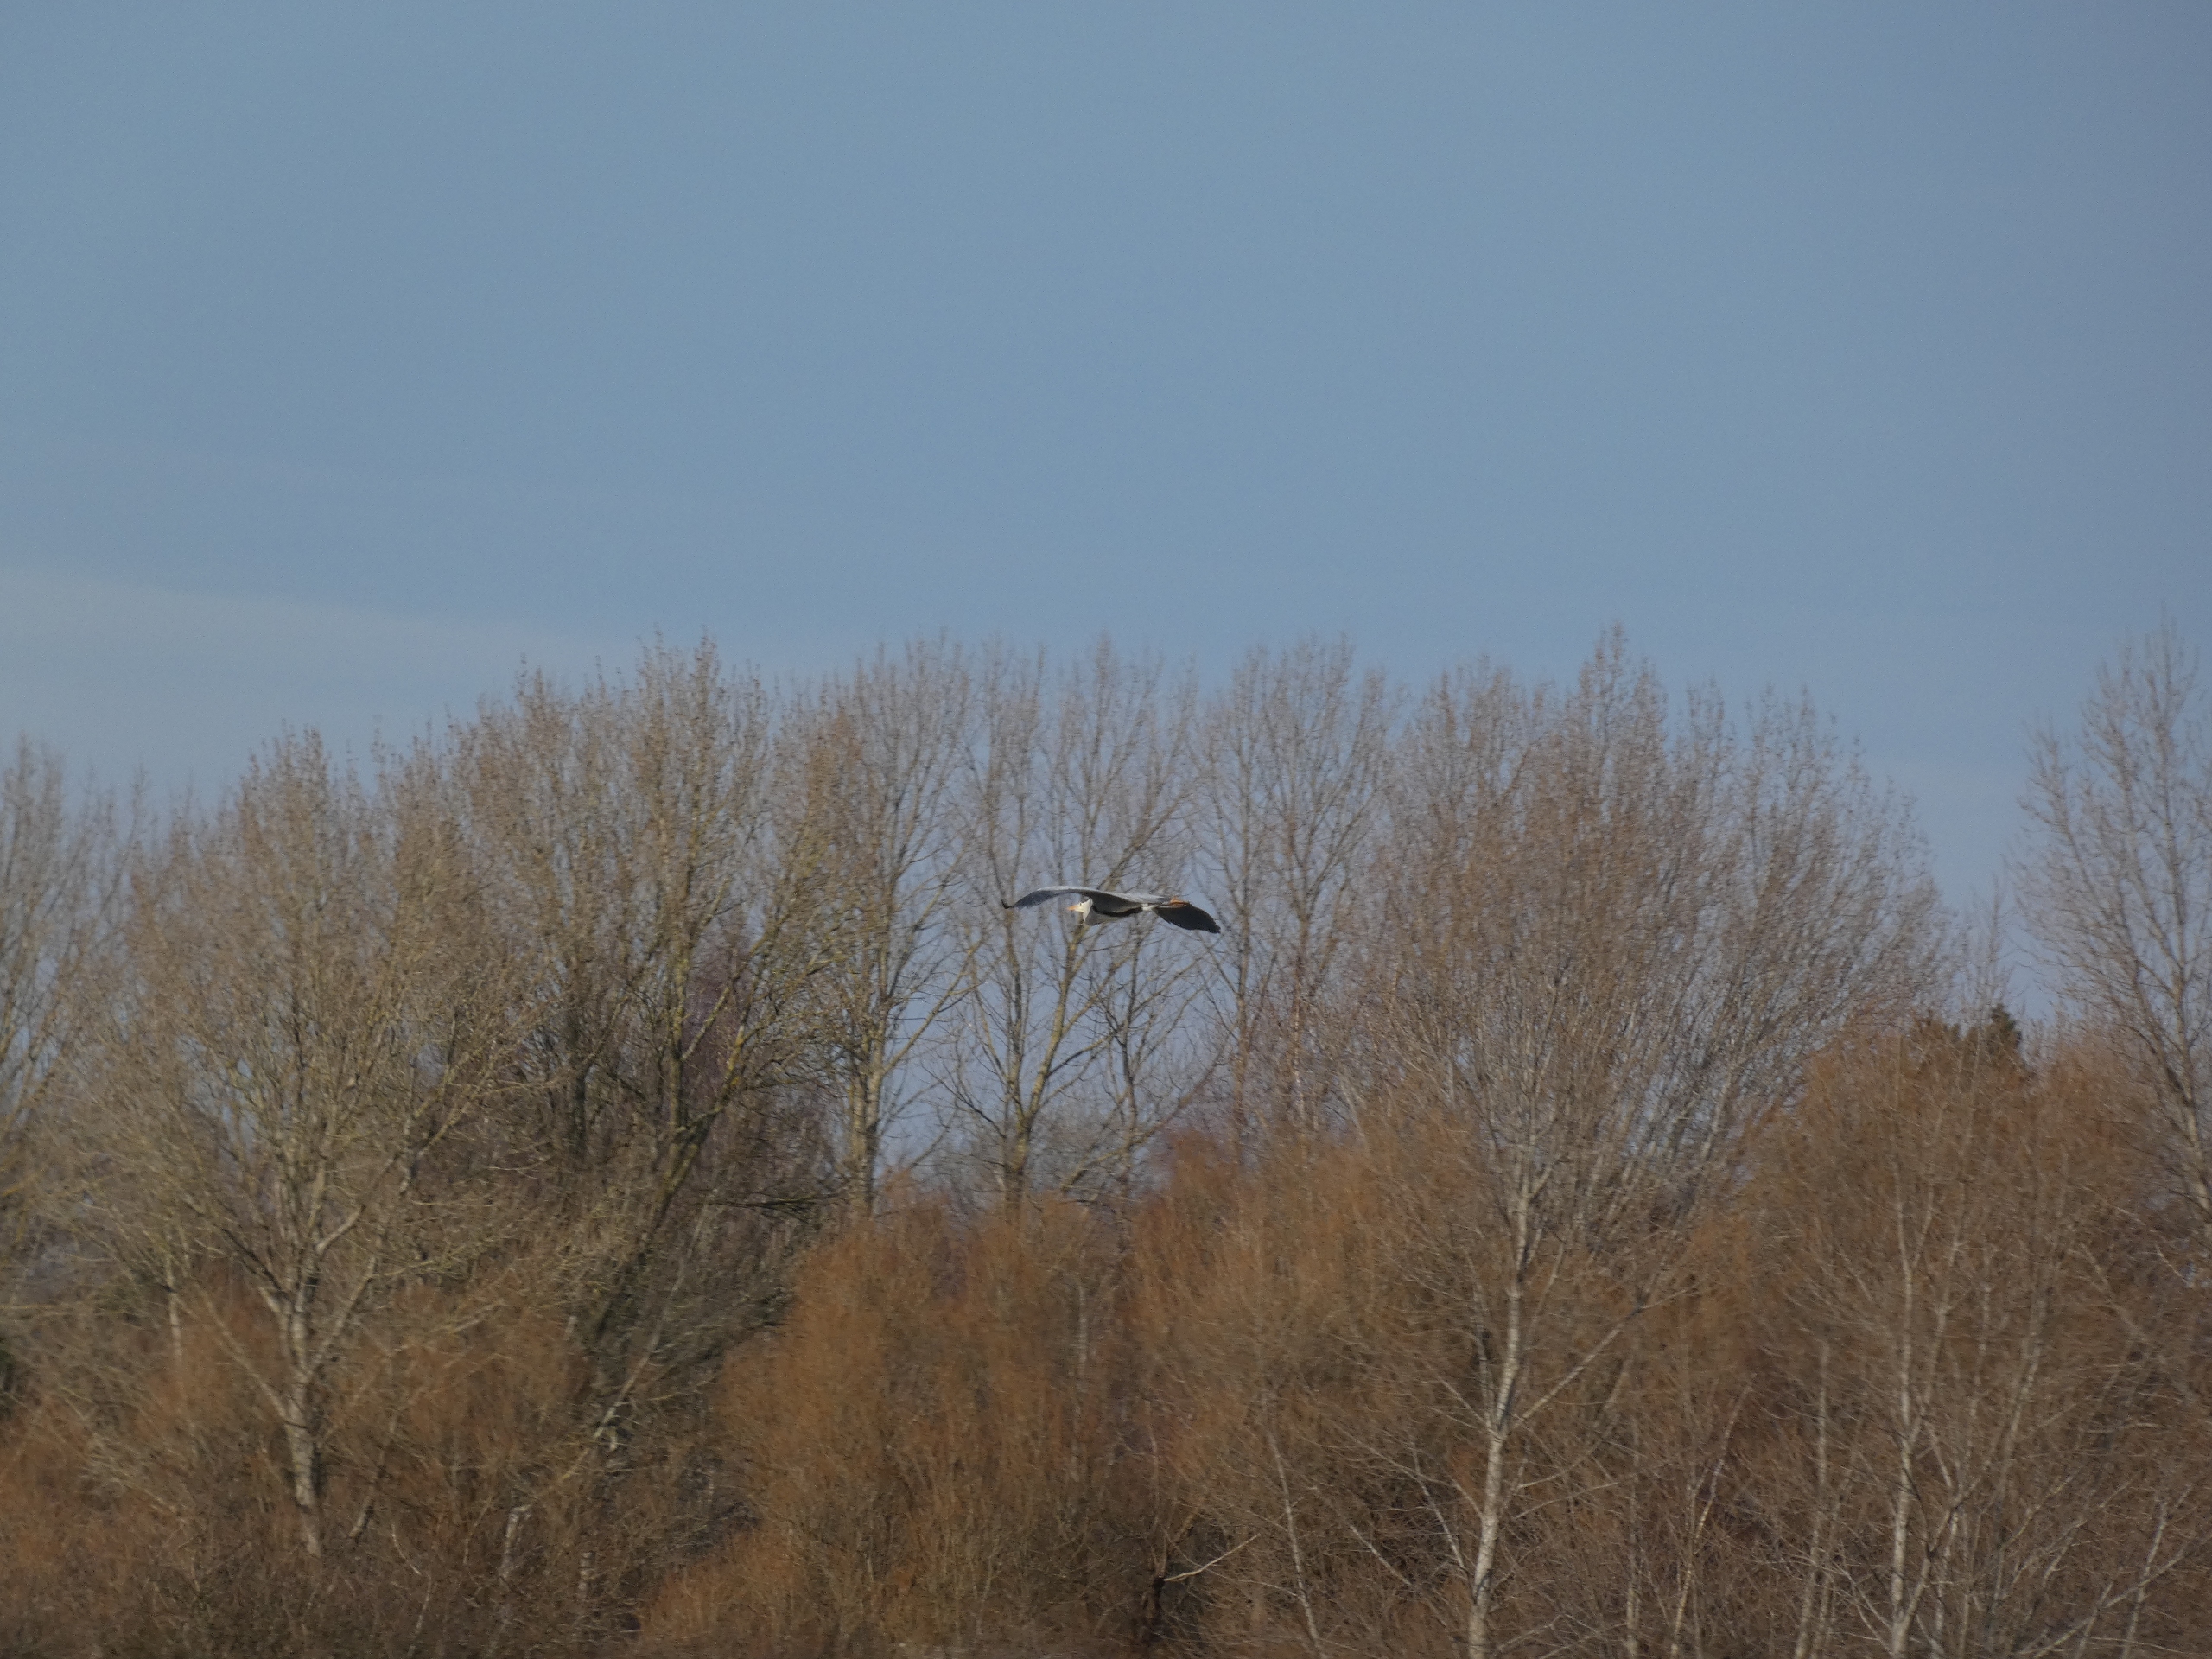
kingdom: Animalia
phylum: Chordata
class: Aves
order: Pelecaniformes
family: Ardeidae
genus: Ardea
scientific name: Ardea cinerea
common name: Fiskehejre
